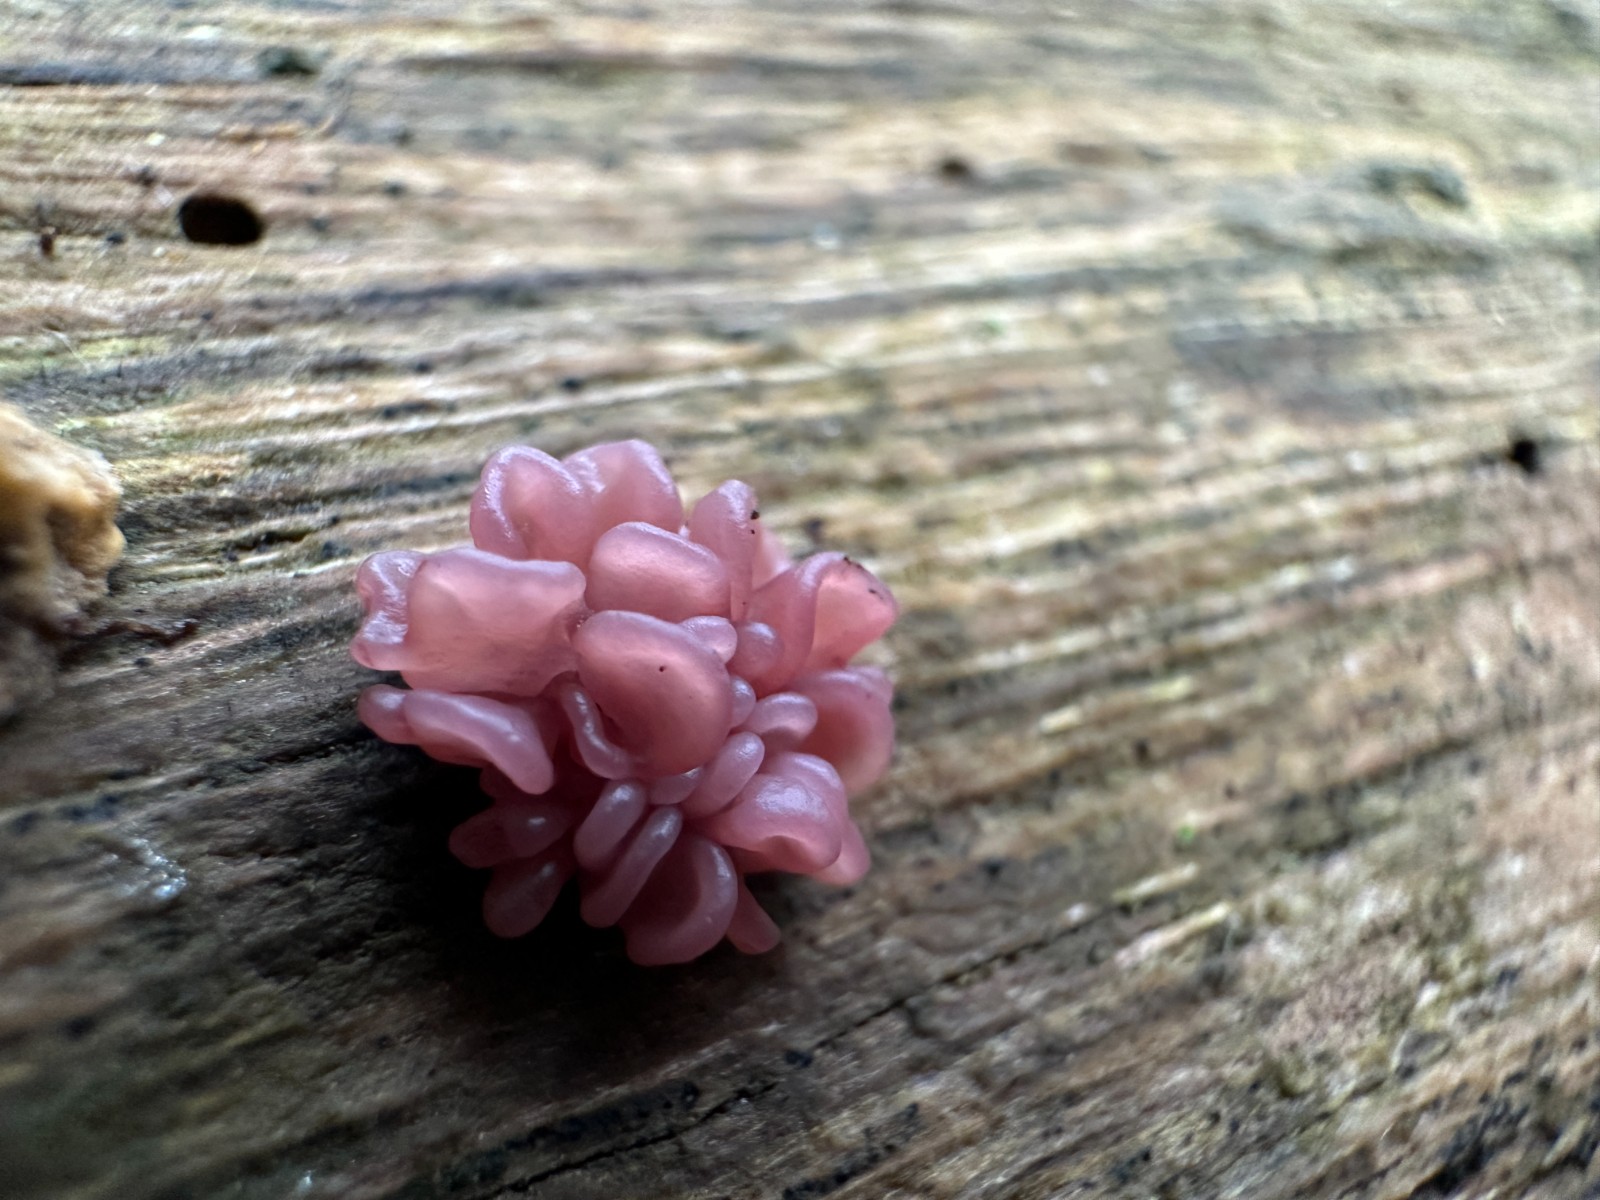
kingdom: Fungi
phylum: Ascomycota
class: Leotiomycetes
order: Helotiales
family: Gelatinodiscaceae
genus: Ascocoryne
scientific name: Ascocoryne sarcoides
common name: rødlilla sejskive
